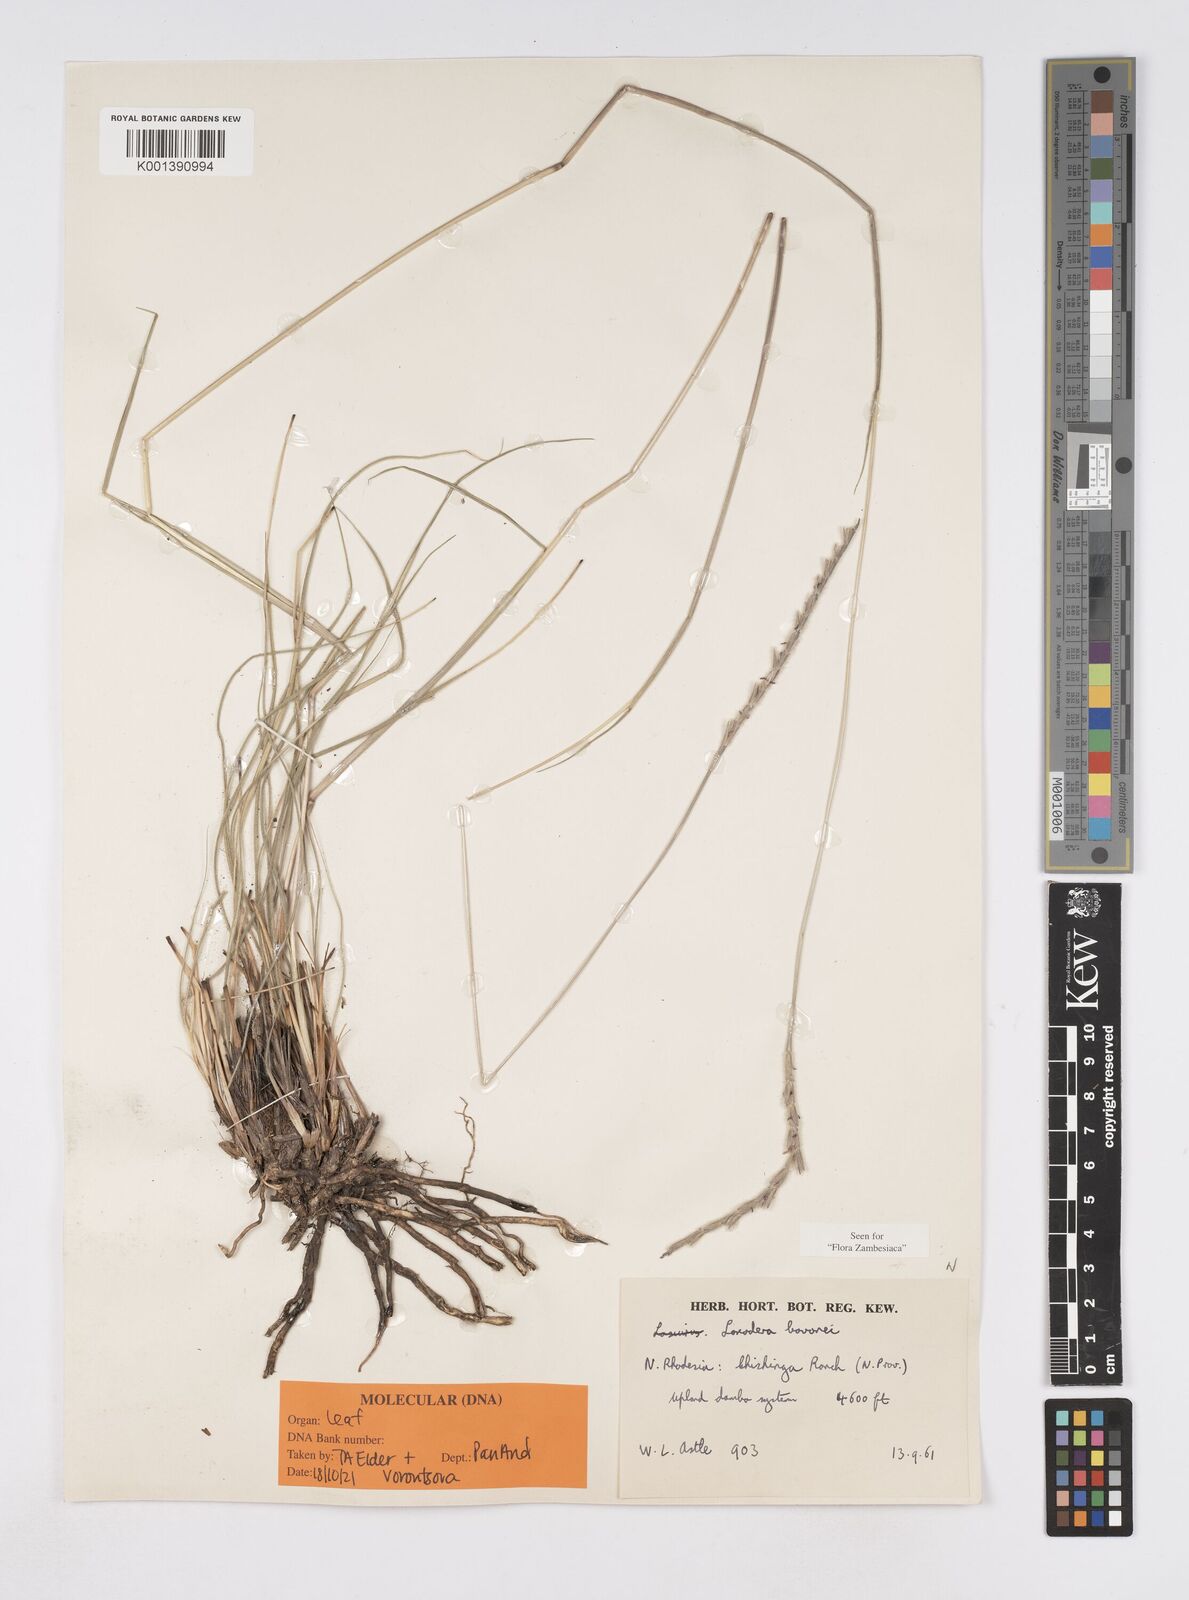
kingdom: Plantae
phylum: Tracheophyta
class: Liliopsida
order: Poales
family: Poaceae
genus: Loxodera
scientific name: Loxodera bovonei
